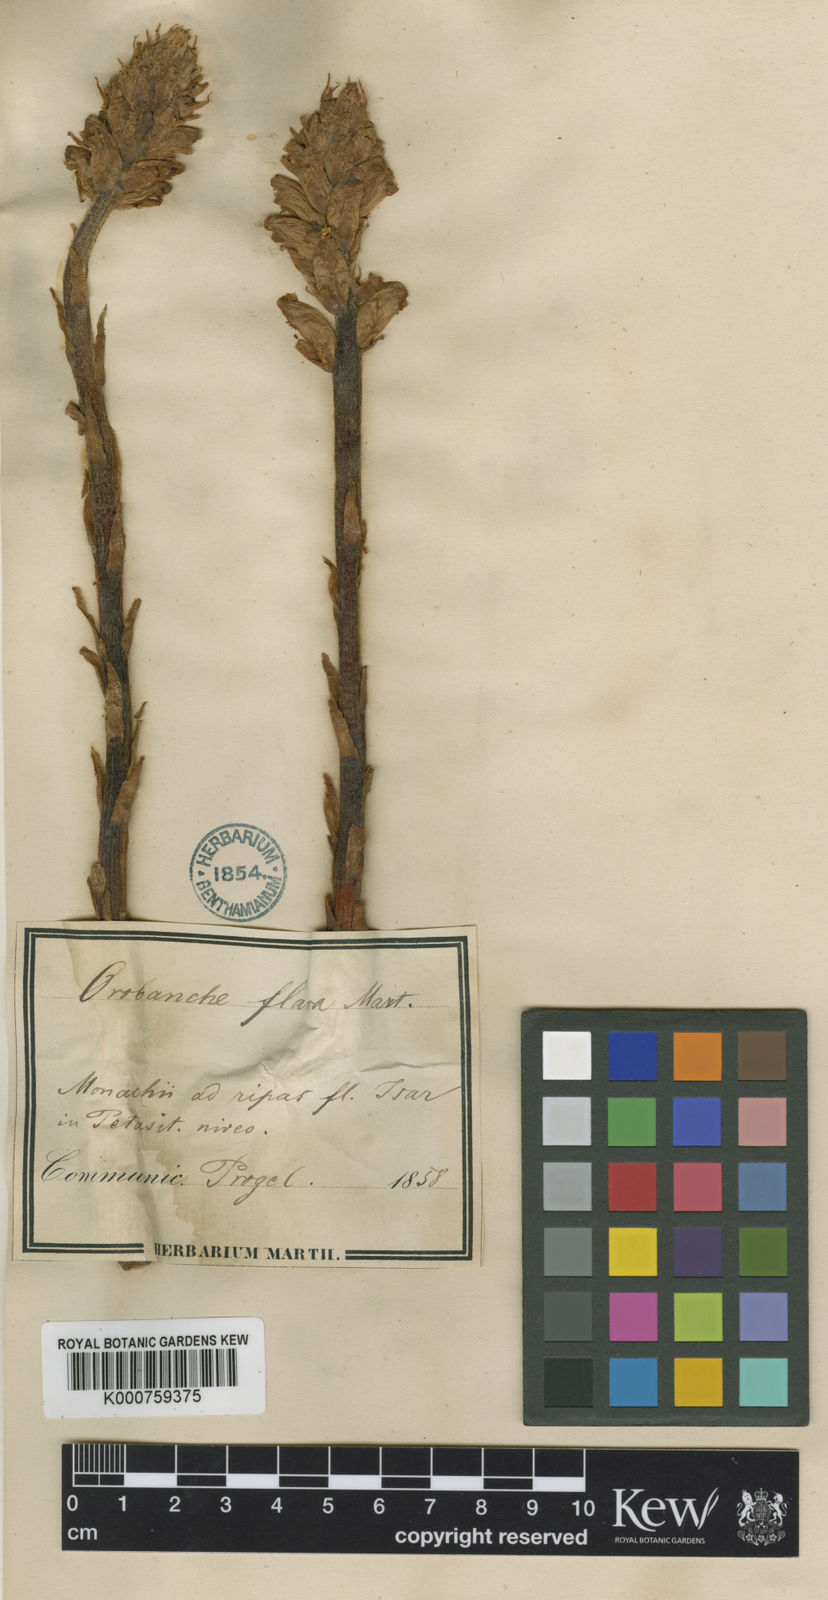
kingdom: Plantae
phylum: Tracheophyta
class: Magnoliopsida
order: Lamiales
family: Orobanchaceae
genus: Orobanche
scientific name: Orobanche
